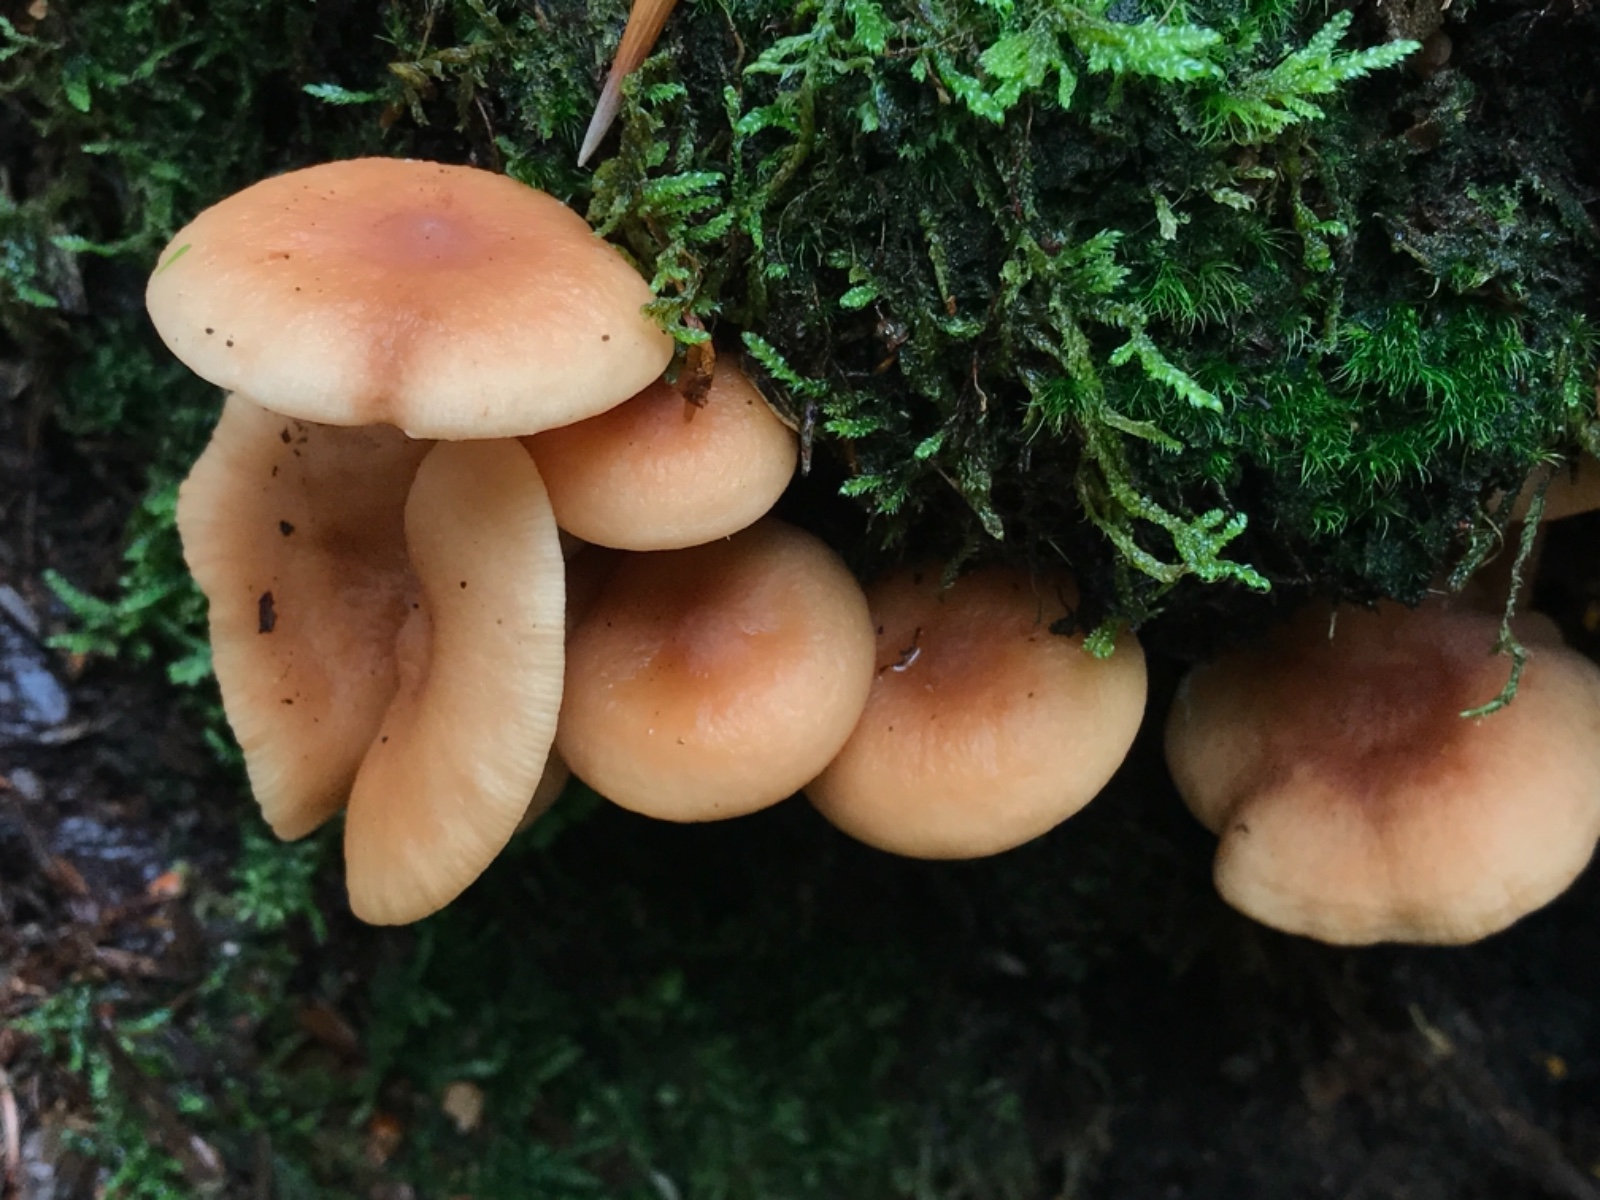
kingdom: Fungi
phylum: Basidiomycota
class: Agaricomycetes
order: Russulales
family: Russulaceae
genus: Lactarius
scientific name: Lactarius tabidus
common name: rynket mælkehat
